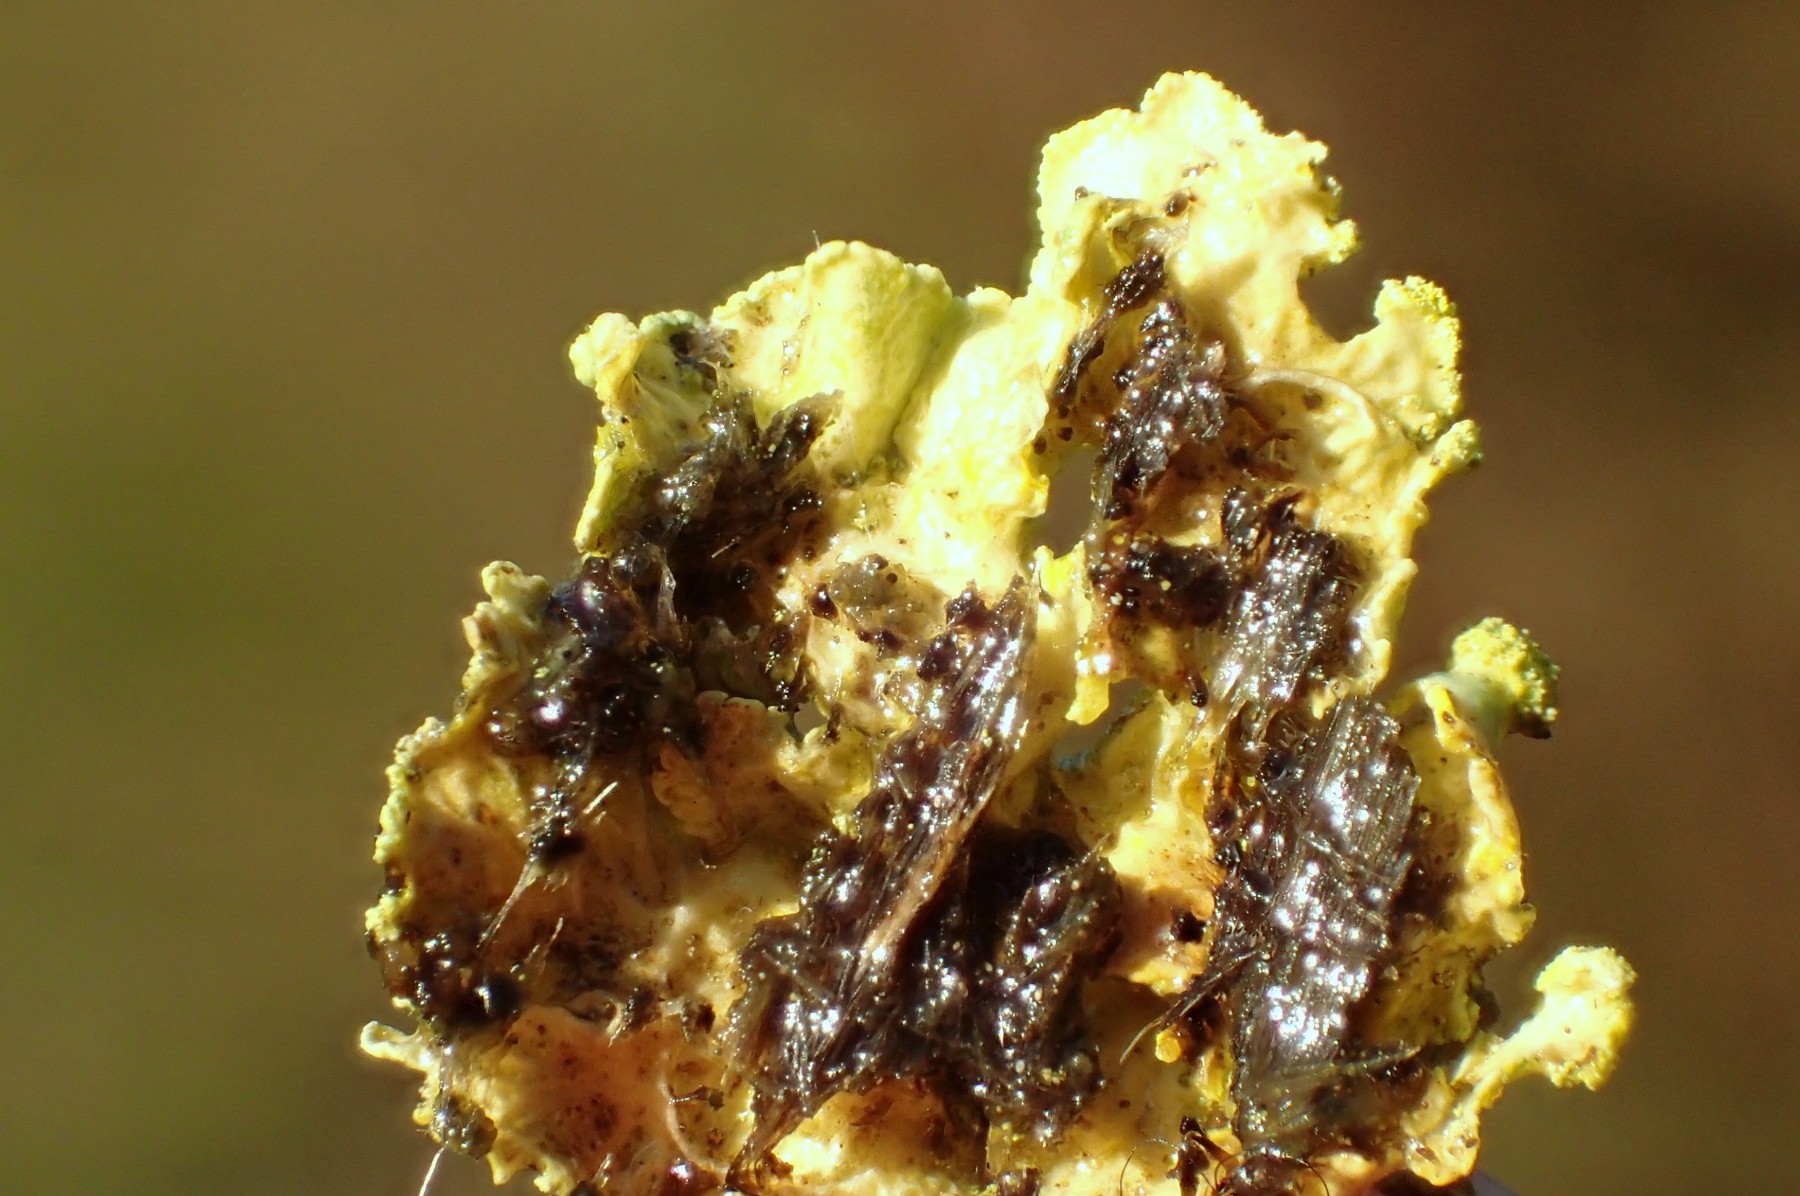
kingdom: Fungi
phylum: Ascomycota
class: Lecanoromycetes
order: Lecanorales
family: Parmeliaceae
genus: Vulpicida
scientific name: Vulpicida pinastri
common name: gul kruslav
